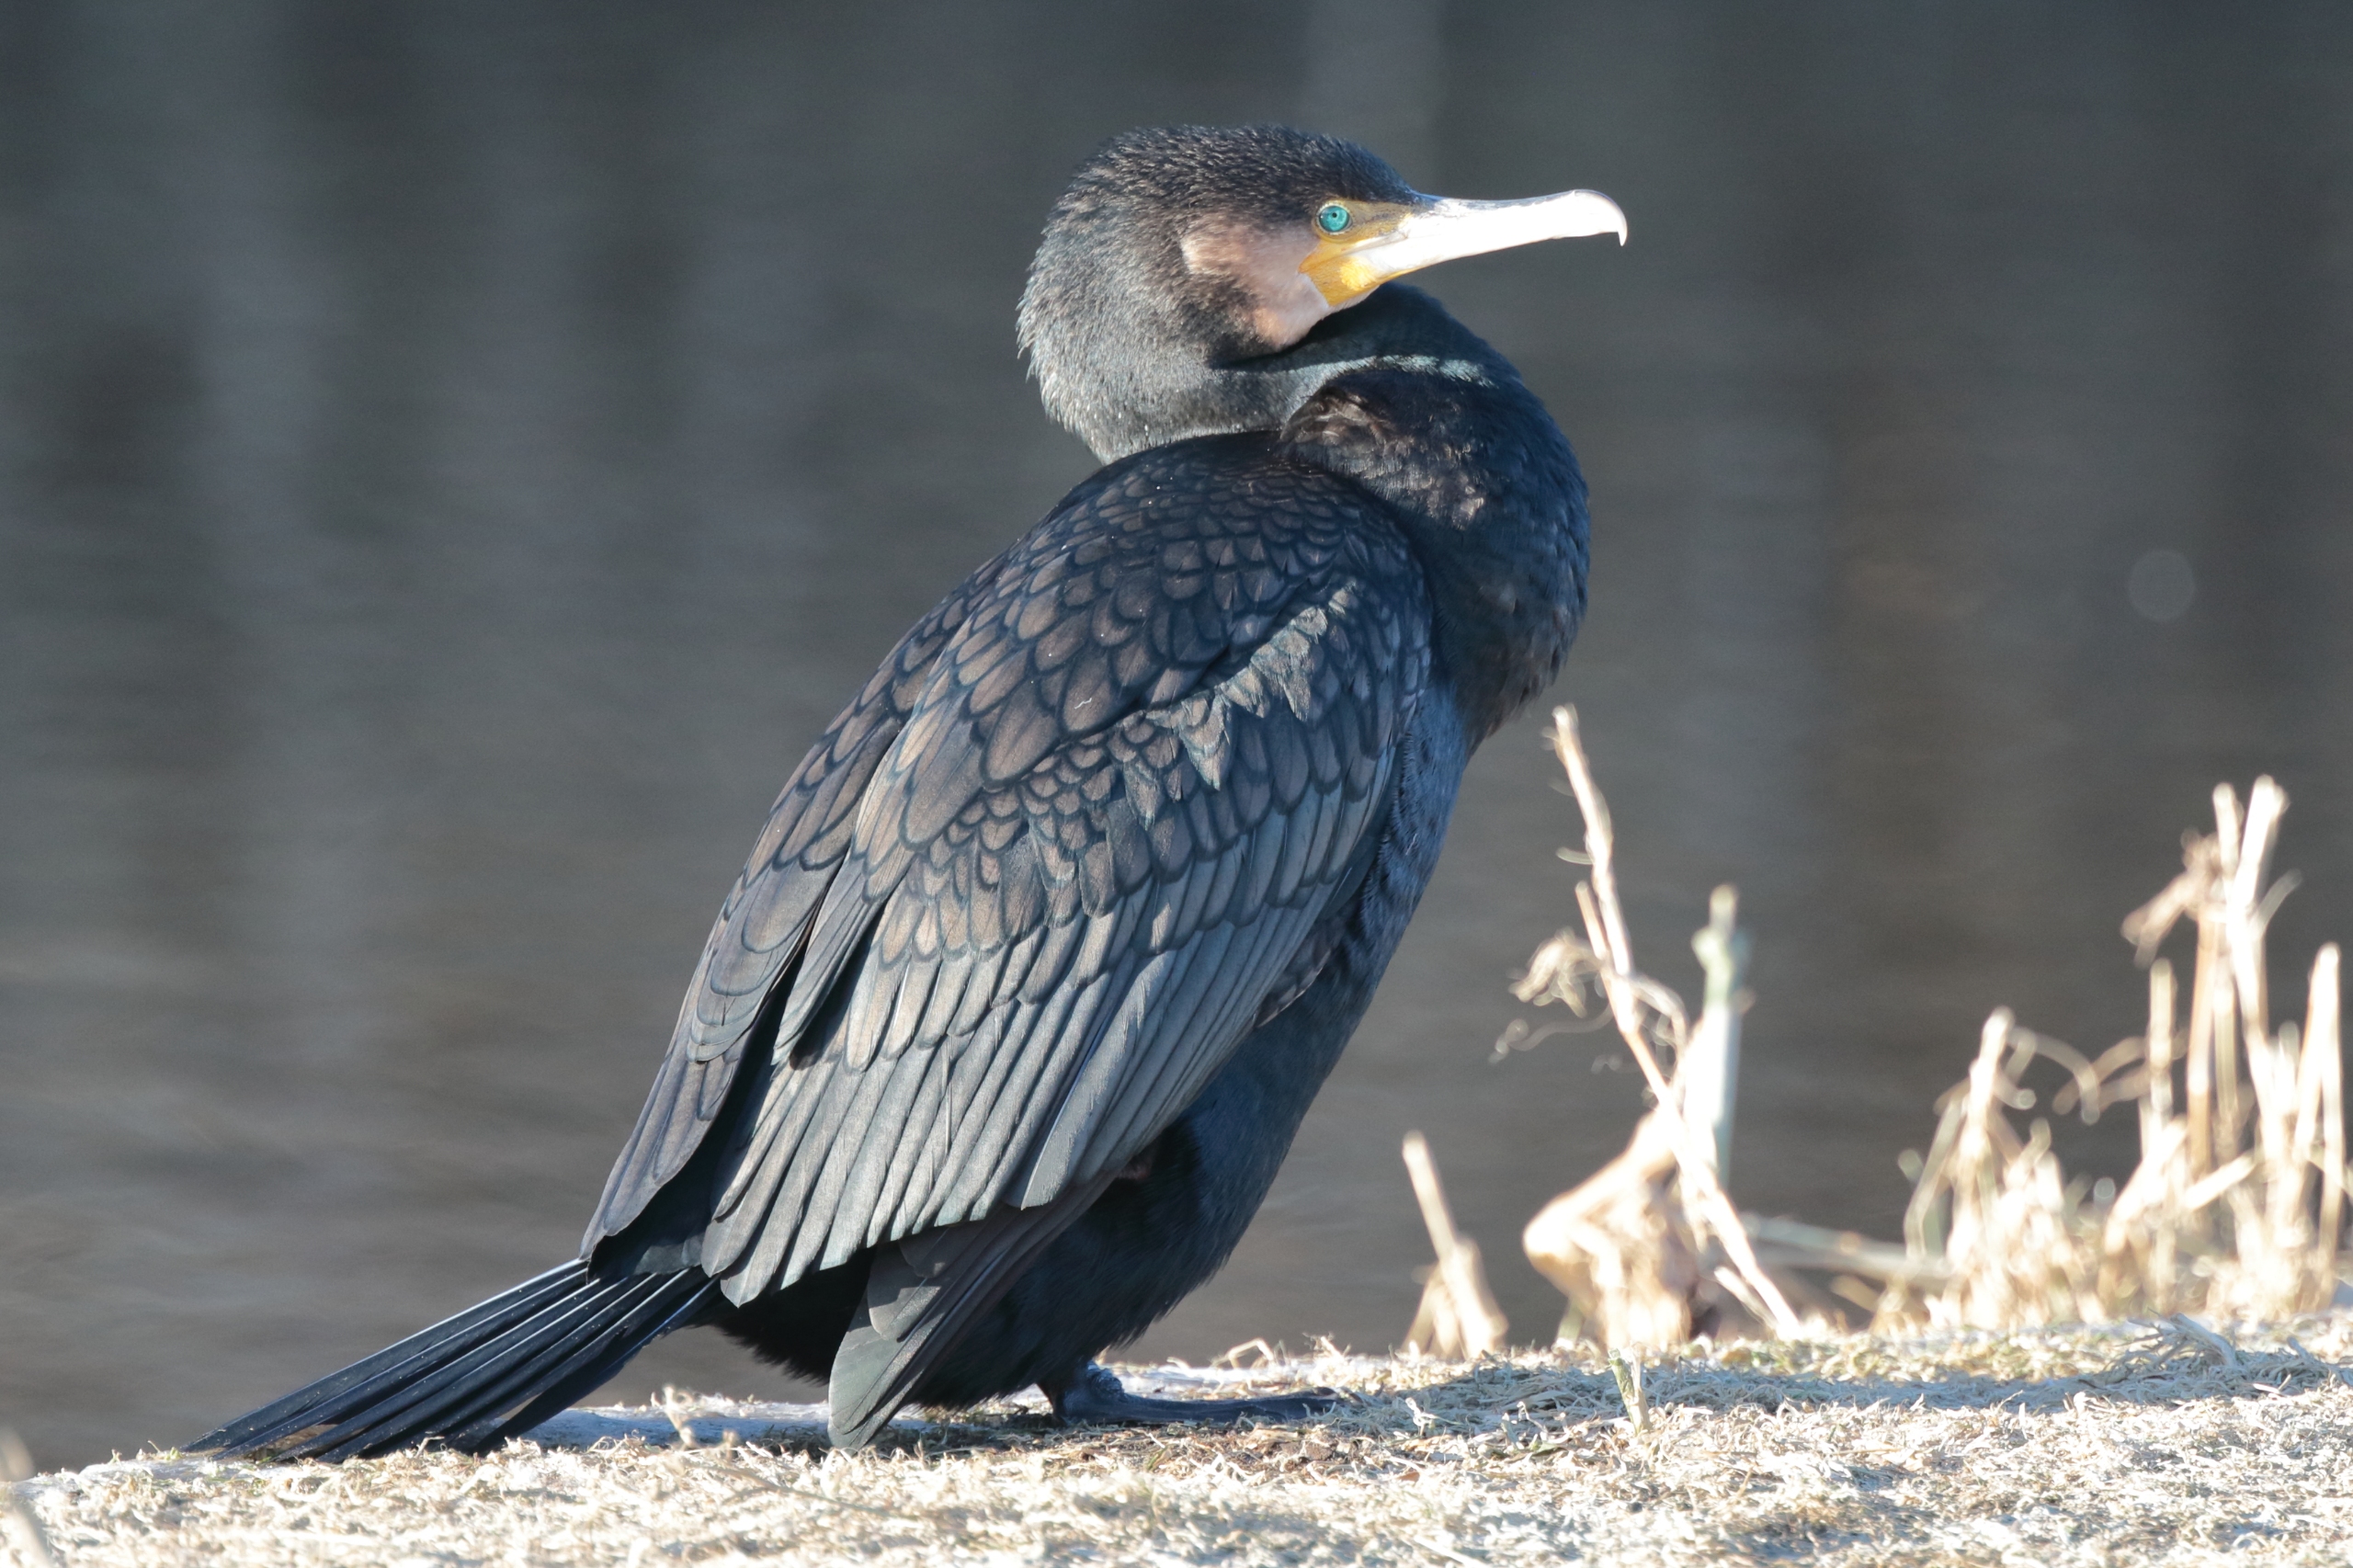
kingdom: Animalia
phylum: Chordata
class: Aves
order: Suliformes
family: Phalacrocoracidae
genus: Phalacrocorax
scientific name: Phalacrocorax carbo
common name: Skarv
